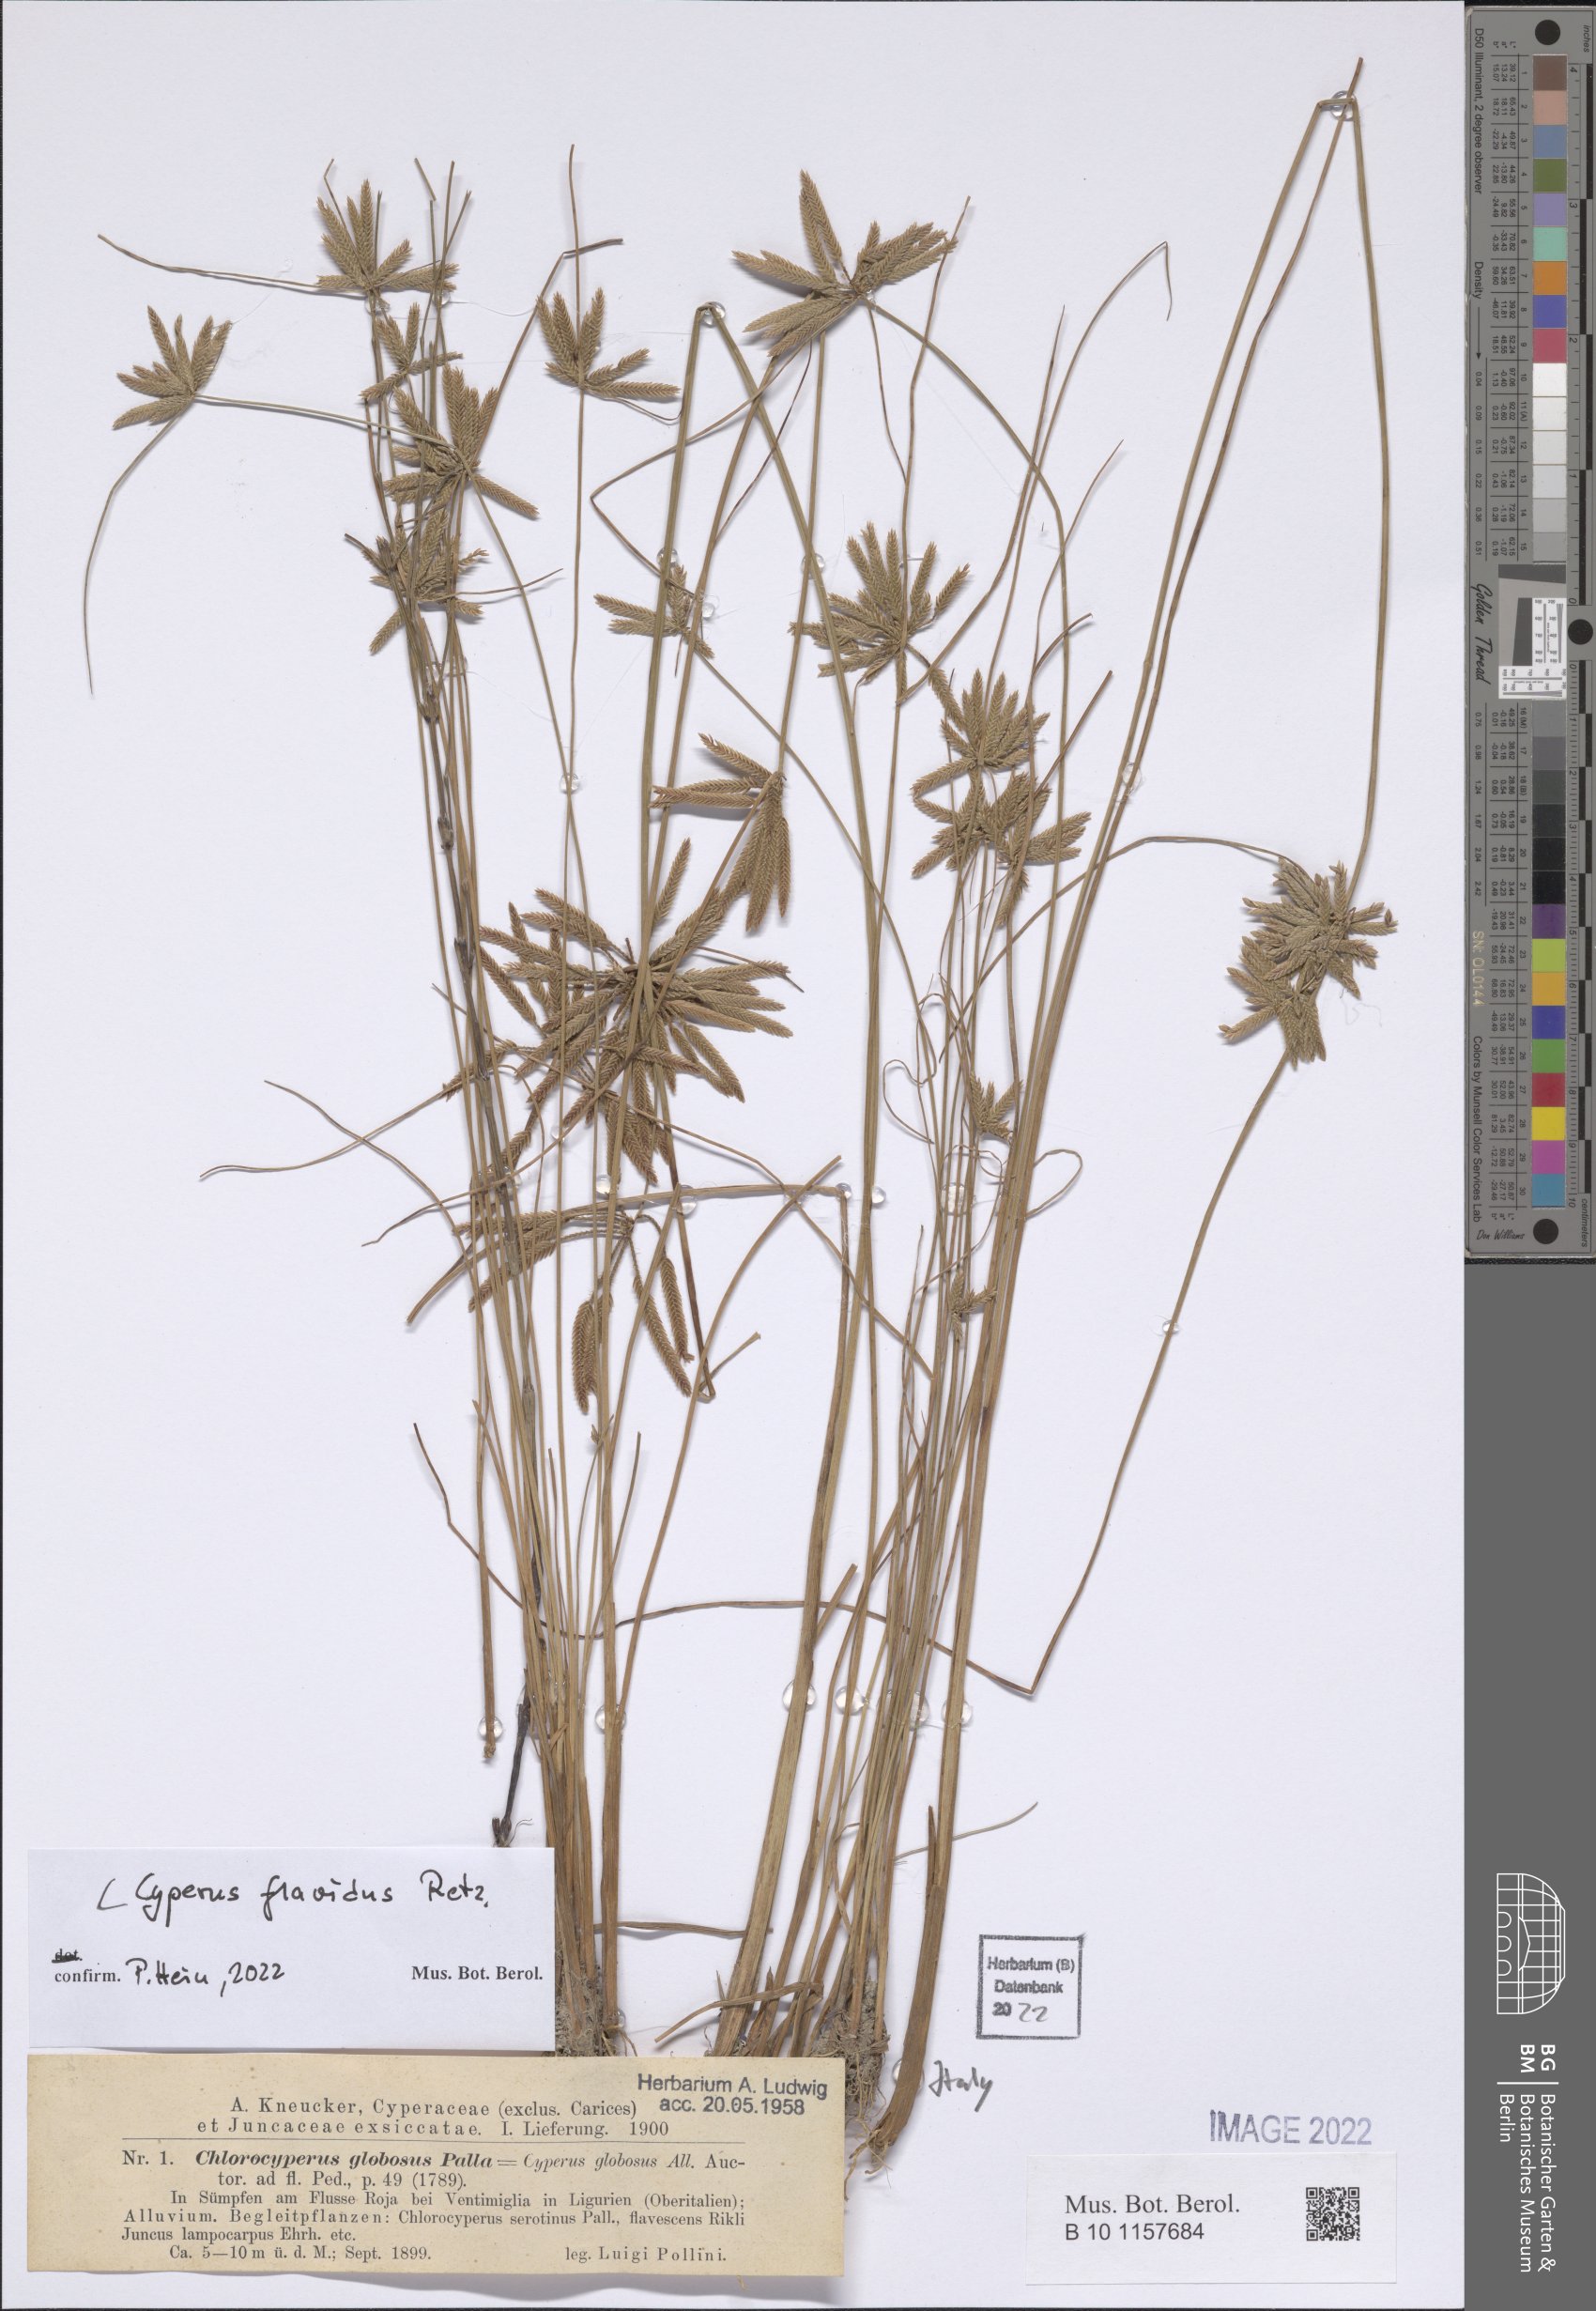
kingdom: Plantae
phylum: Tracheophyta
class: Liliopsida
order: Poales
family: Cyperaceae
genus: Cyperus
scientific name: Cyperus flavidus
